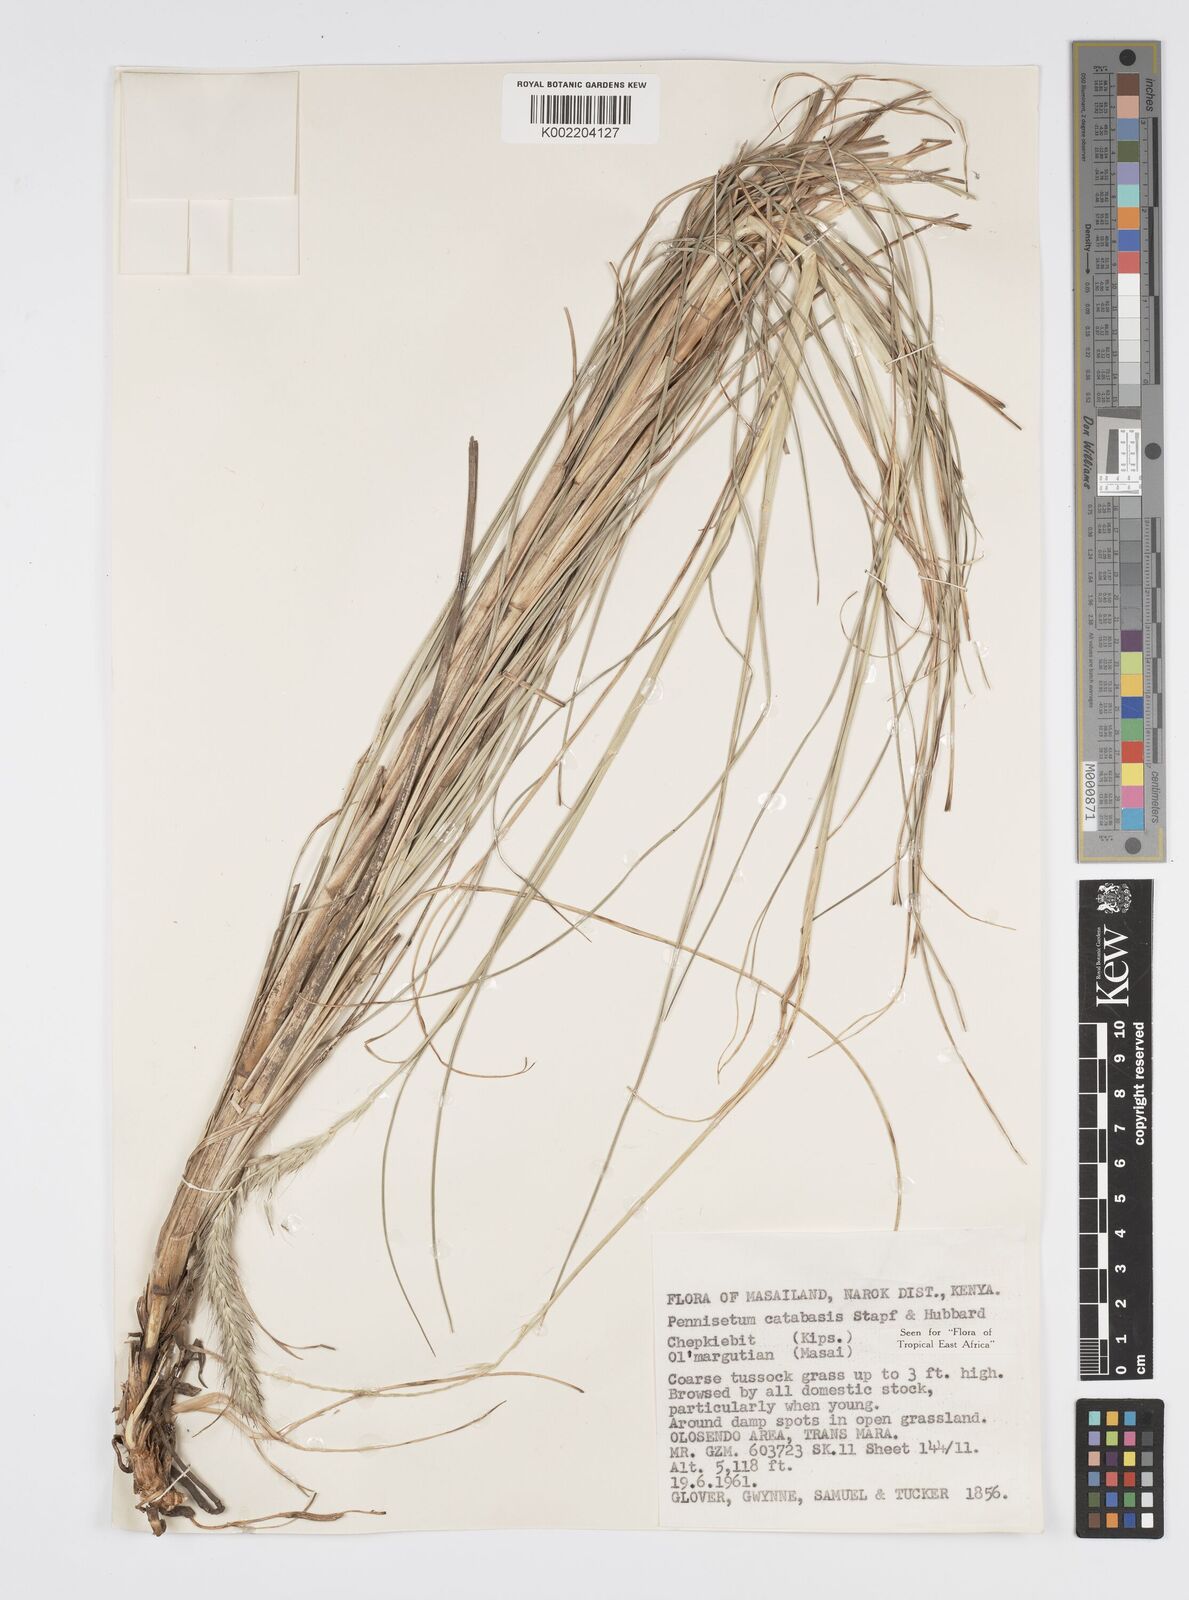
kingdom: Plantae
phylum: Tracheophyta
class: Liliopsida
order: Poales
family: Poaceae
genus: Cenchrus
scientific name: Cenchrus hohenackeri
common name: Moya grass
